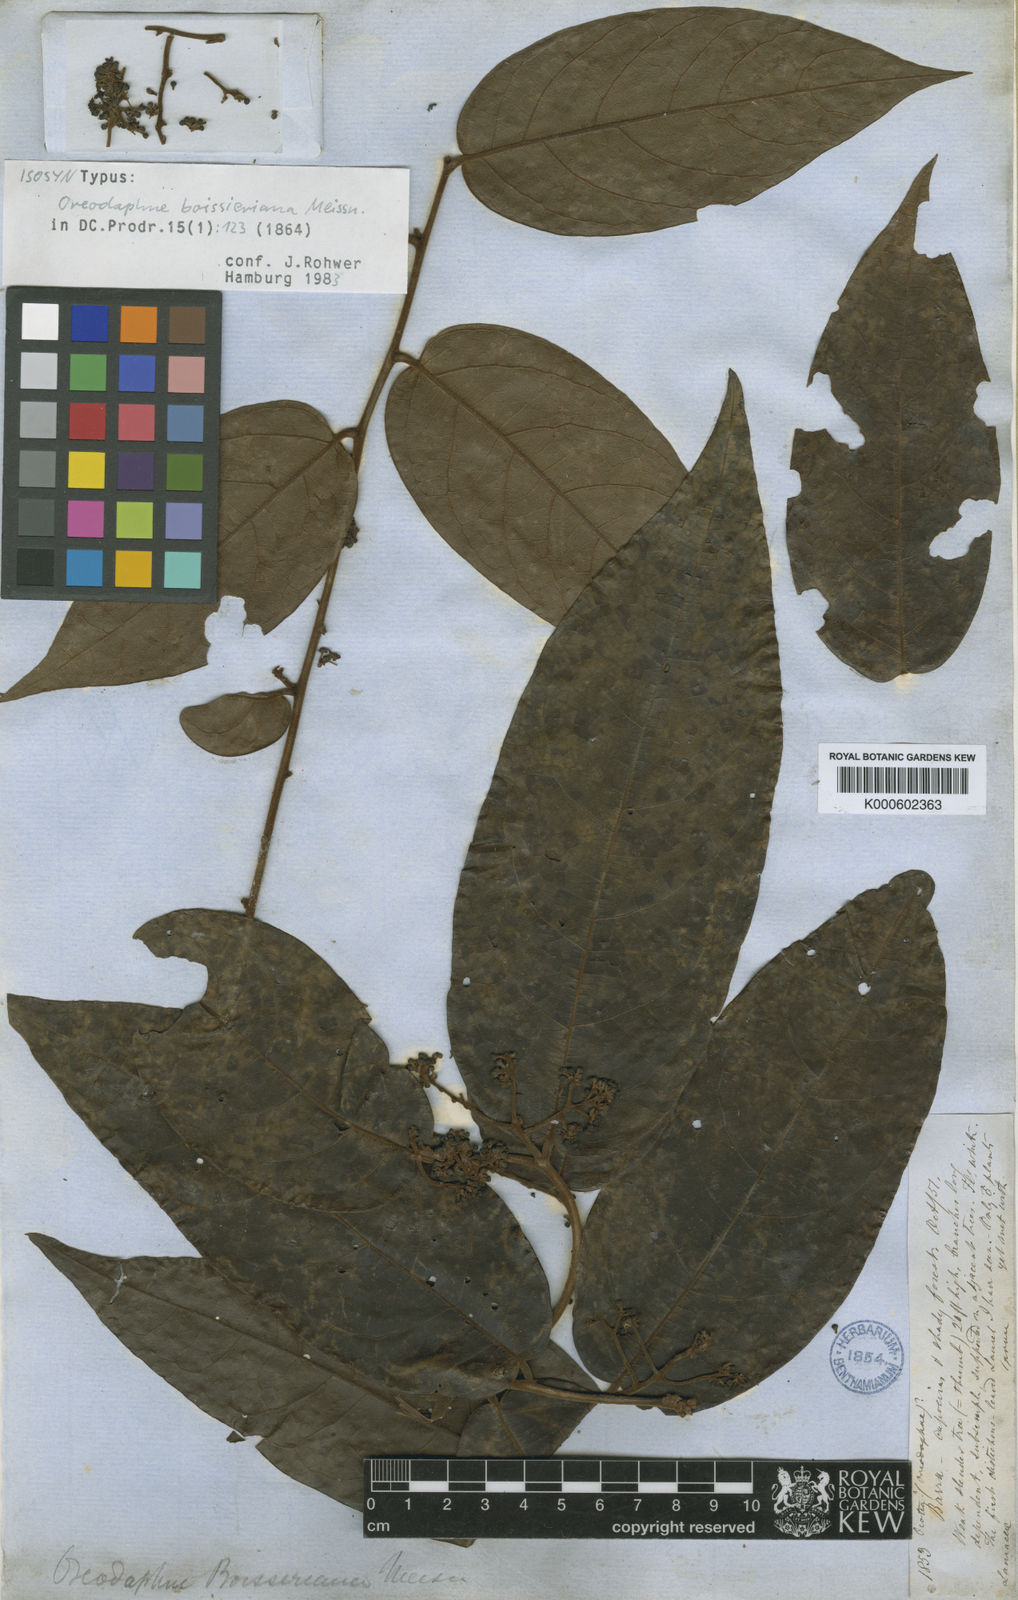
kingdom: Plantae
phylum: Tracheophyta
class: Magnoliopsida
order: Laurales
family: Lauraceae
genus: Ocotea
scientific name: Ocotea boissieriana
